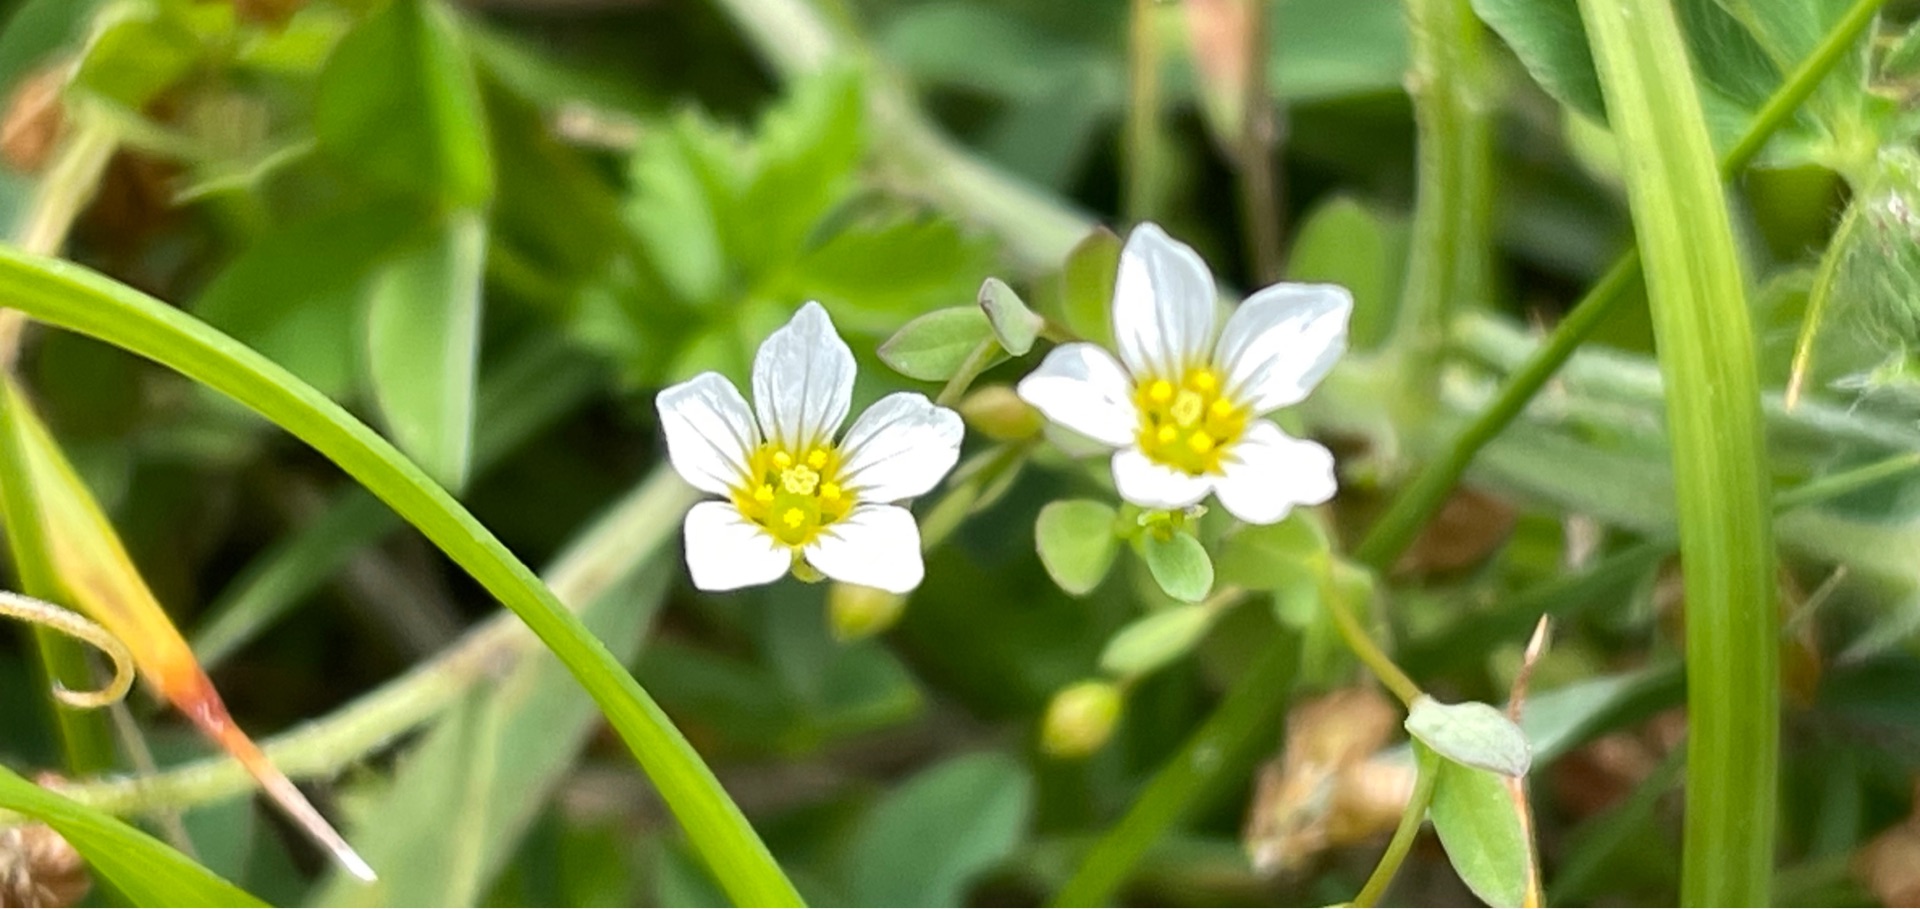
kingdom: Plantae
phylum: Tracheophyta
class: Magnoliopsida
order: Malpighiales
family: Linaceae
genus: Linum
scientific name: Linum catharticum
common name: Vild hør
